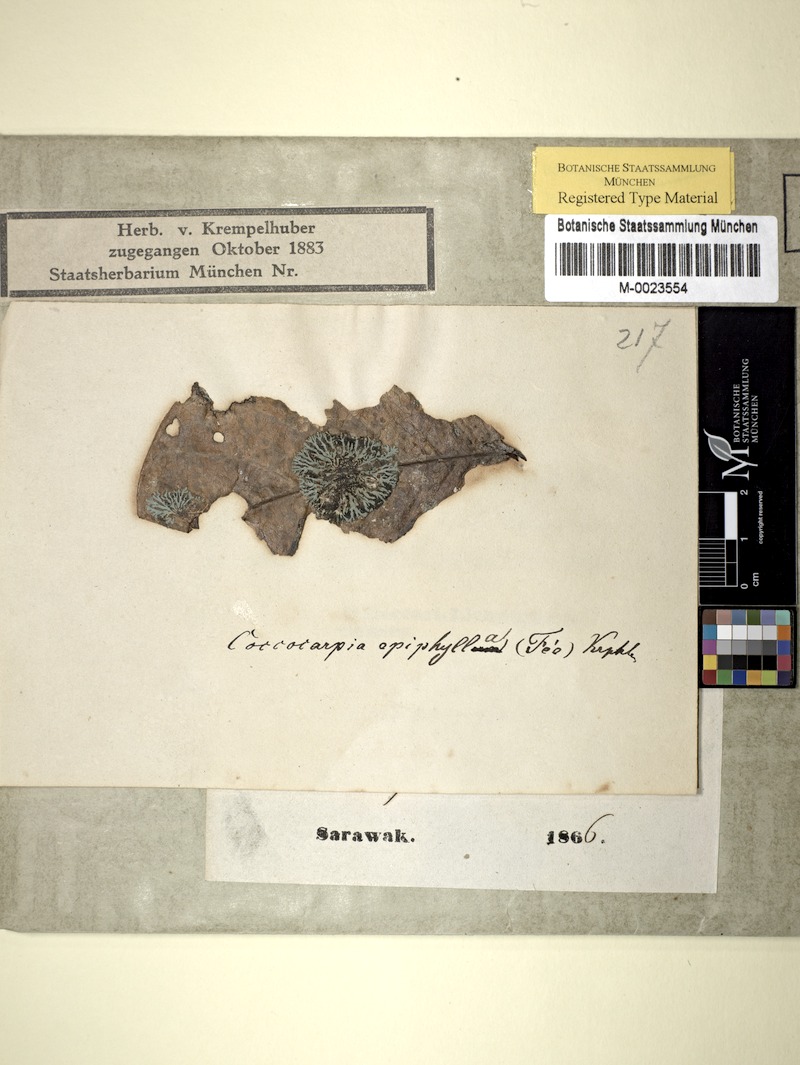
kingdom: Fungi
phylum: Ascomycota
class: Lecanoromycetes
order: Peltigerales
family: Coccocarpiaceae
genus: Coccocarpia
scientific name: Coccocarpia aeruginosa
